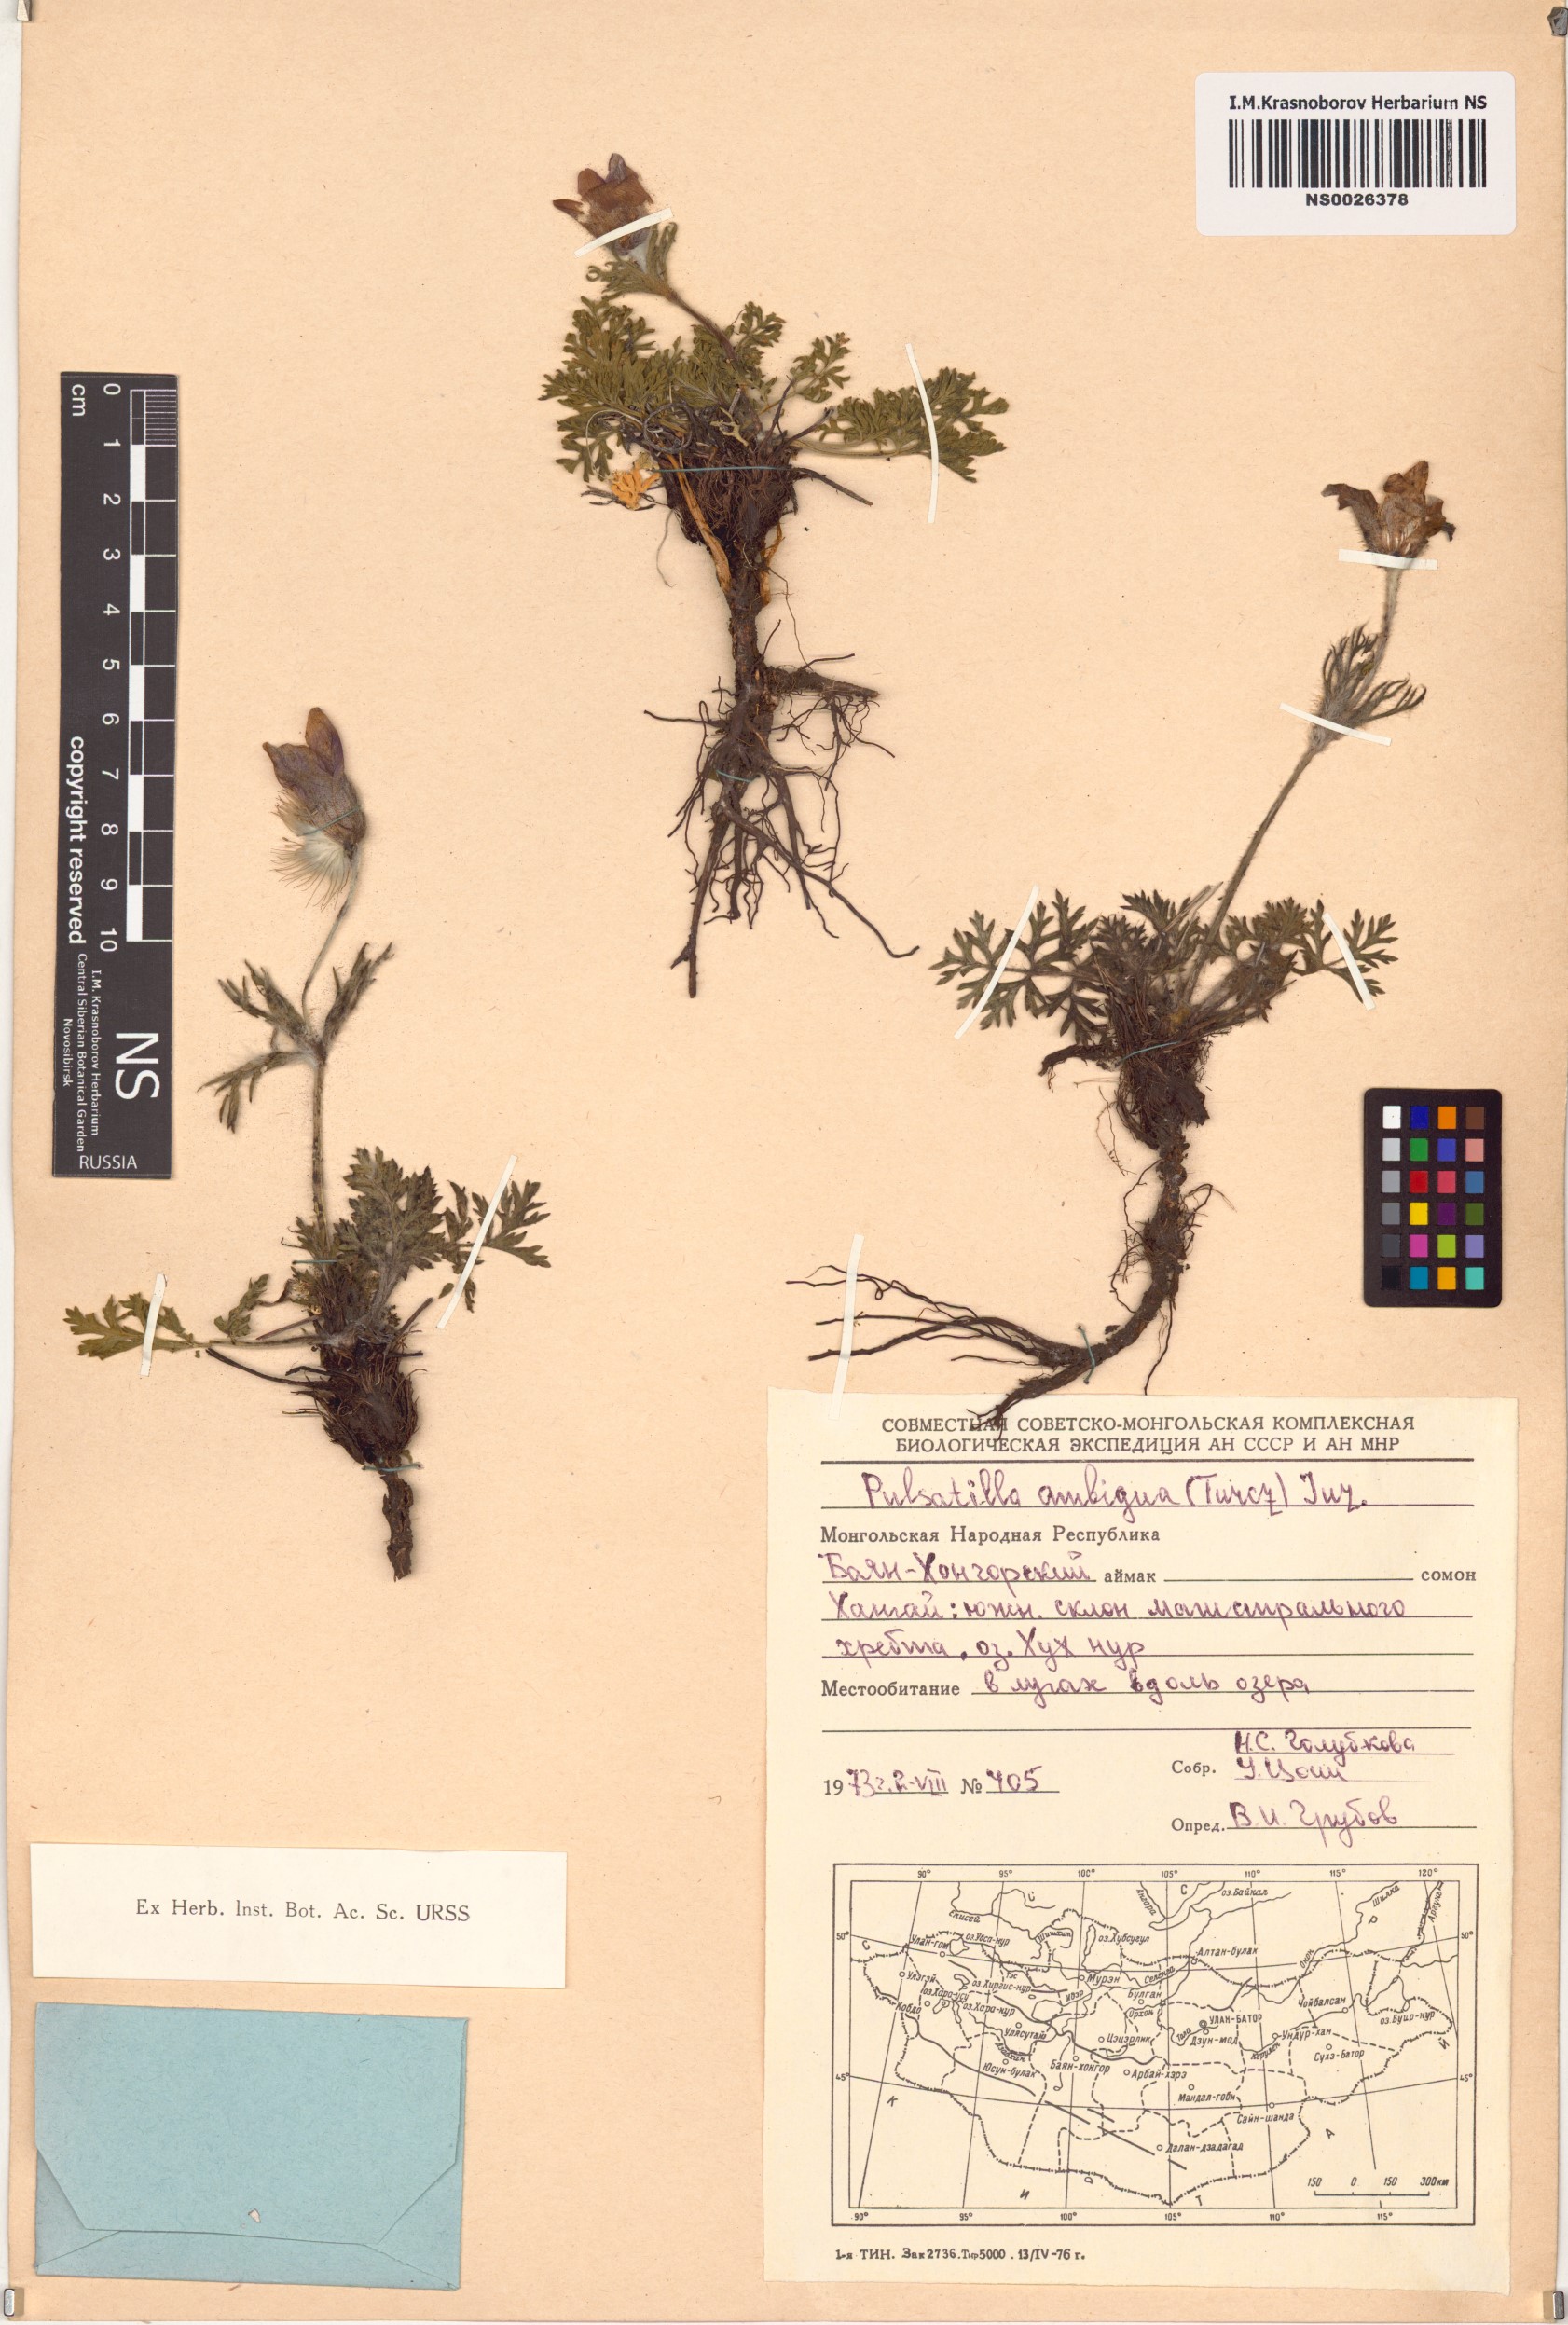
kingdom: Plantae
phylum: Tracheophyta
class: Magnoliopsida
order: Ranunculales
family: Ranunculaceae
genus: Pulsatilla
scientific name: Pulsatilla ambigua
